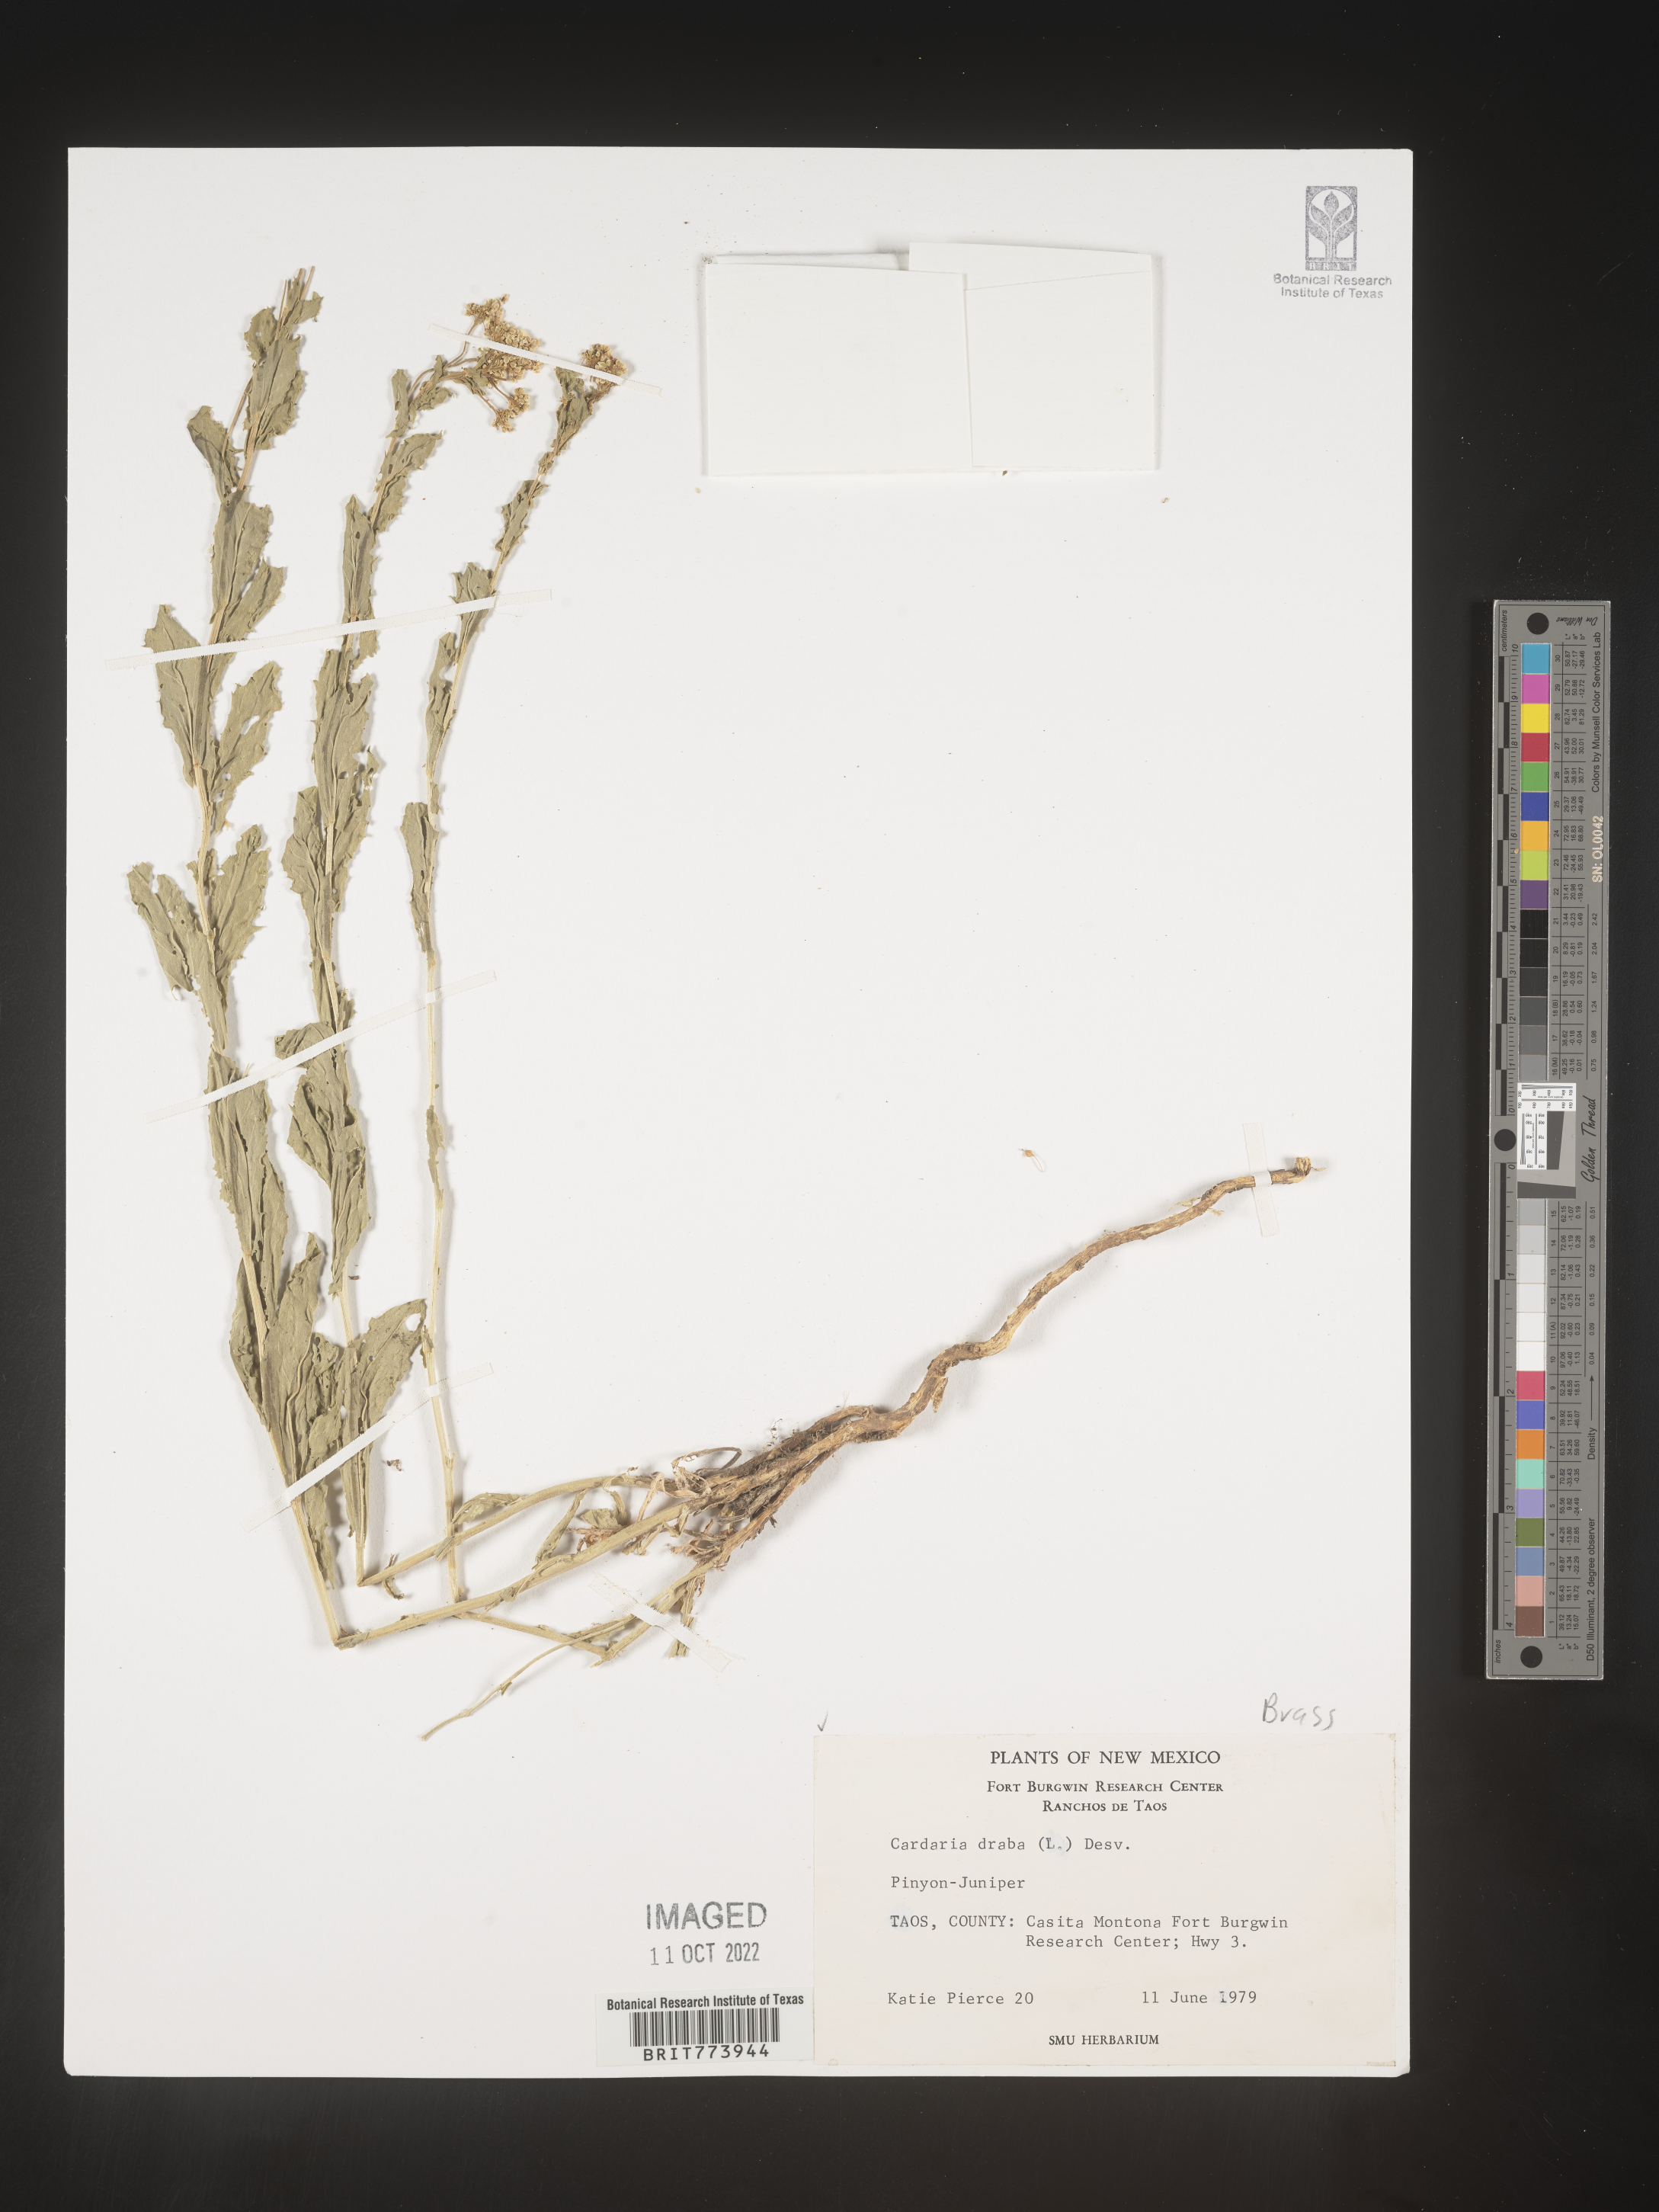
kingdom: Plantae
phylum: Tracheophyta
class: Magnoliopsida
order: Brassicales
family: Brassicaceae
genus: Lepidium
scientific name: Lepidium draba
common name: Hoary cress
